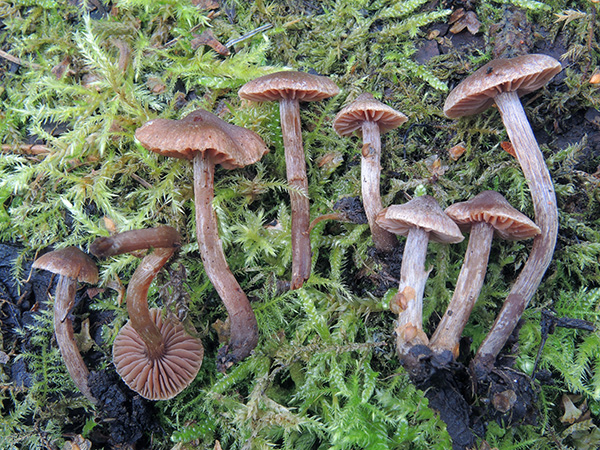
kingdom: Fungi
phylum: Basidiomycota
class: Agaricomycetes
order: Agaricales
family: Cortinariaceae
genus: Cortinarius
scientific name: Cortinarius
